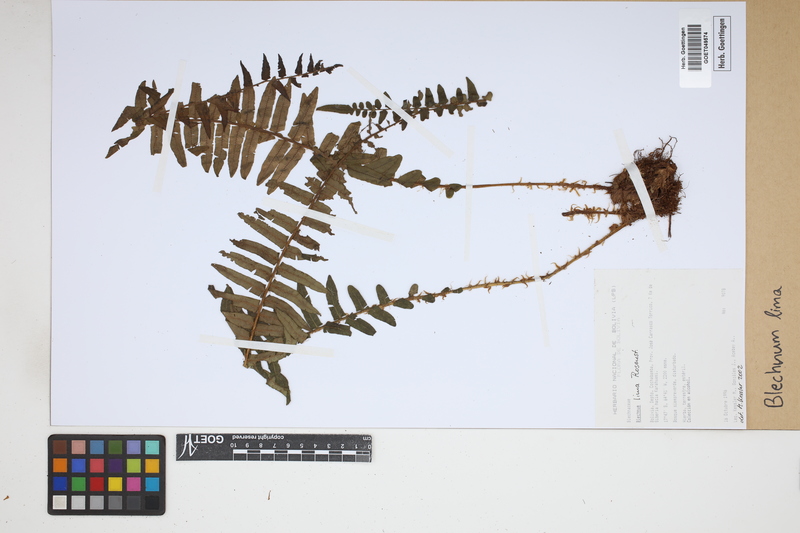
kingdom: Plantae
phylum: Tracheophyta
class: Polypodiopsida
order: Polypodiales
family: Blechnaceae
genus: Parablechnum
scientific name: Parablechnum lima
